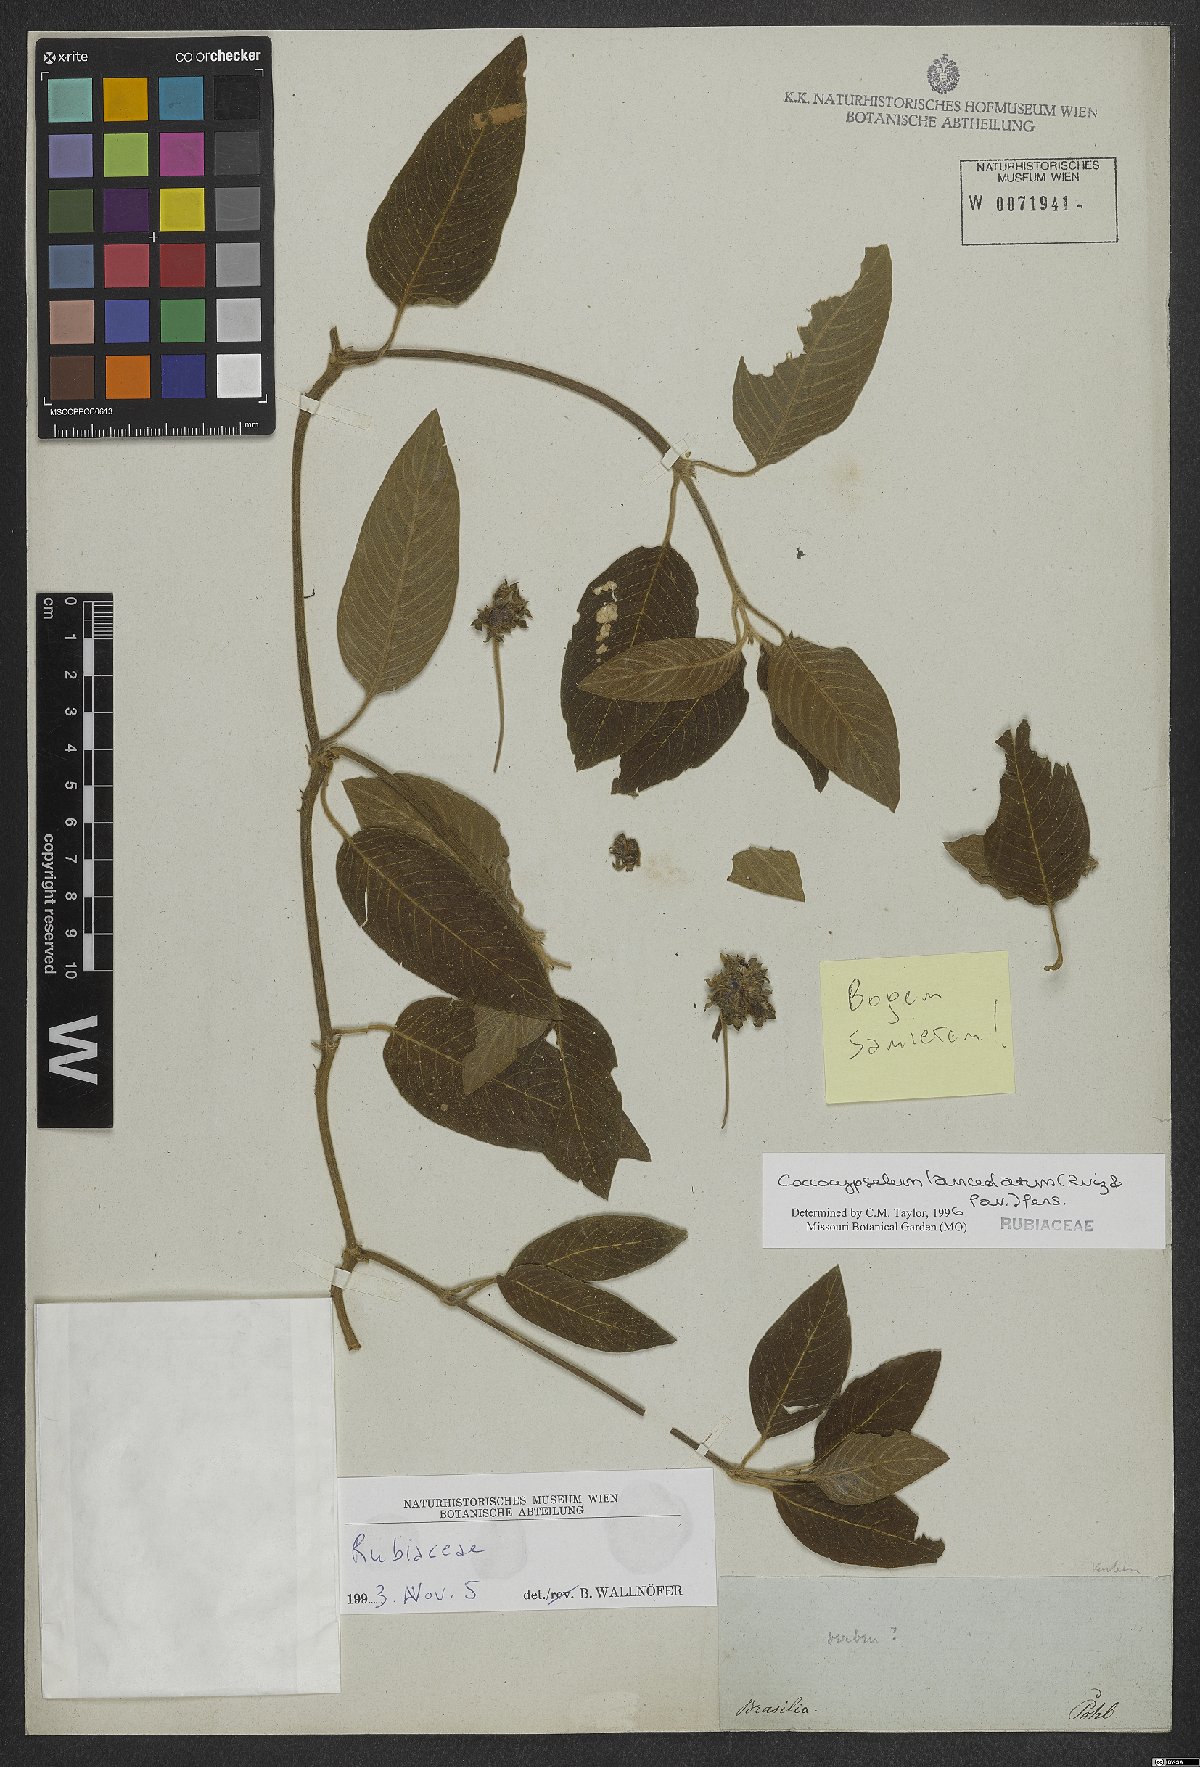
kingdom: Plantae
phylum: Tracheophyta
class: Magnoliopsida
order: Gentianales
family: Rubiaceae
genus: Coccocypselum
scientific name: Coccocypselum lanceolatum
